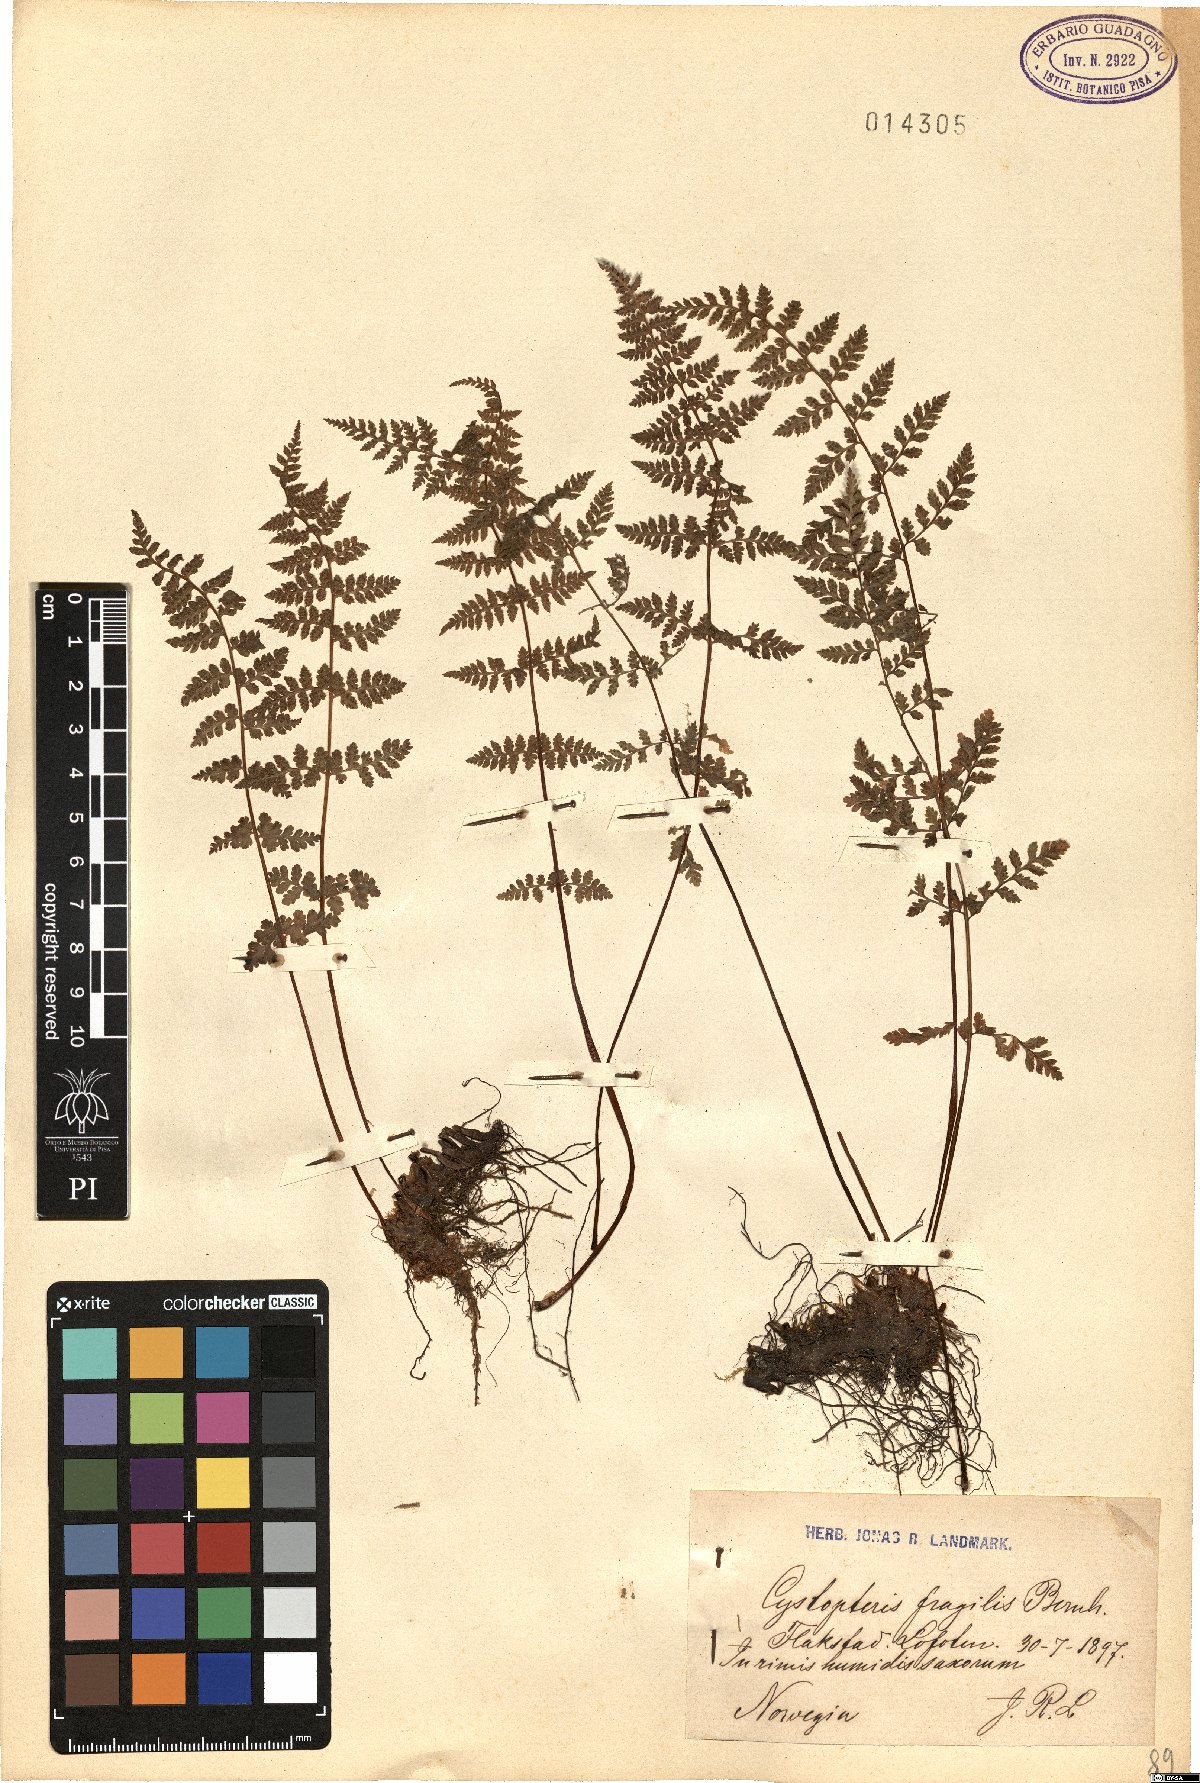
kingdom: Plantae
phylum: Tracheophyta
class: Polypodiopsida
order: Polypodiales
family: Cystopteridaceae
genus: Cystopteris
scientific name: Cystopteris fragilis
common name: Brittle bladder fern
